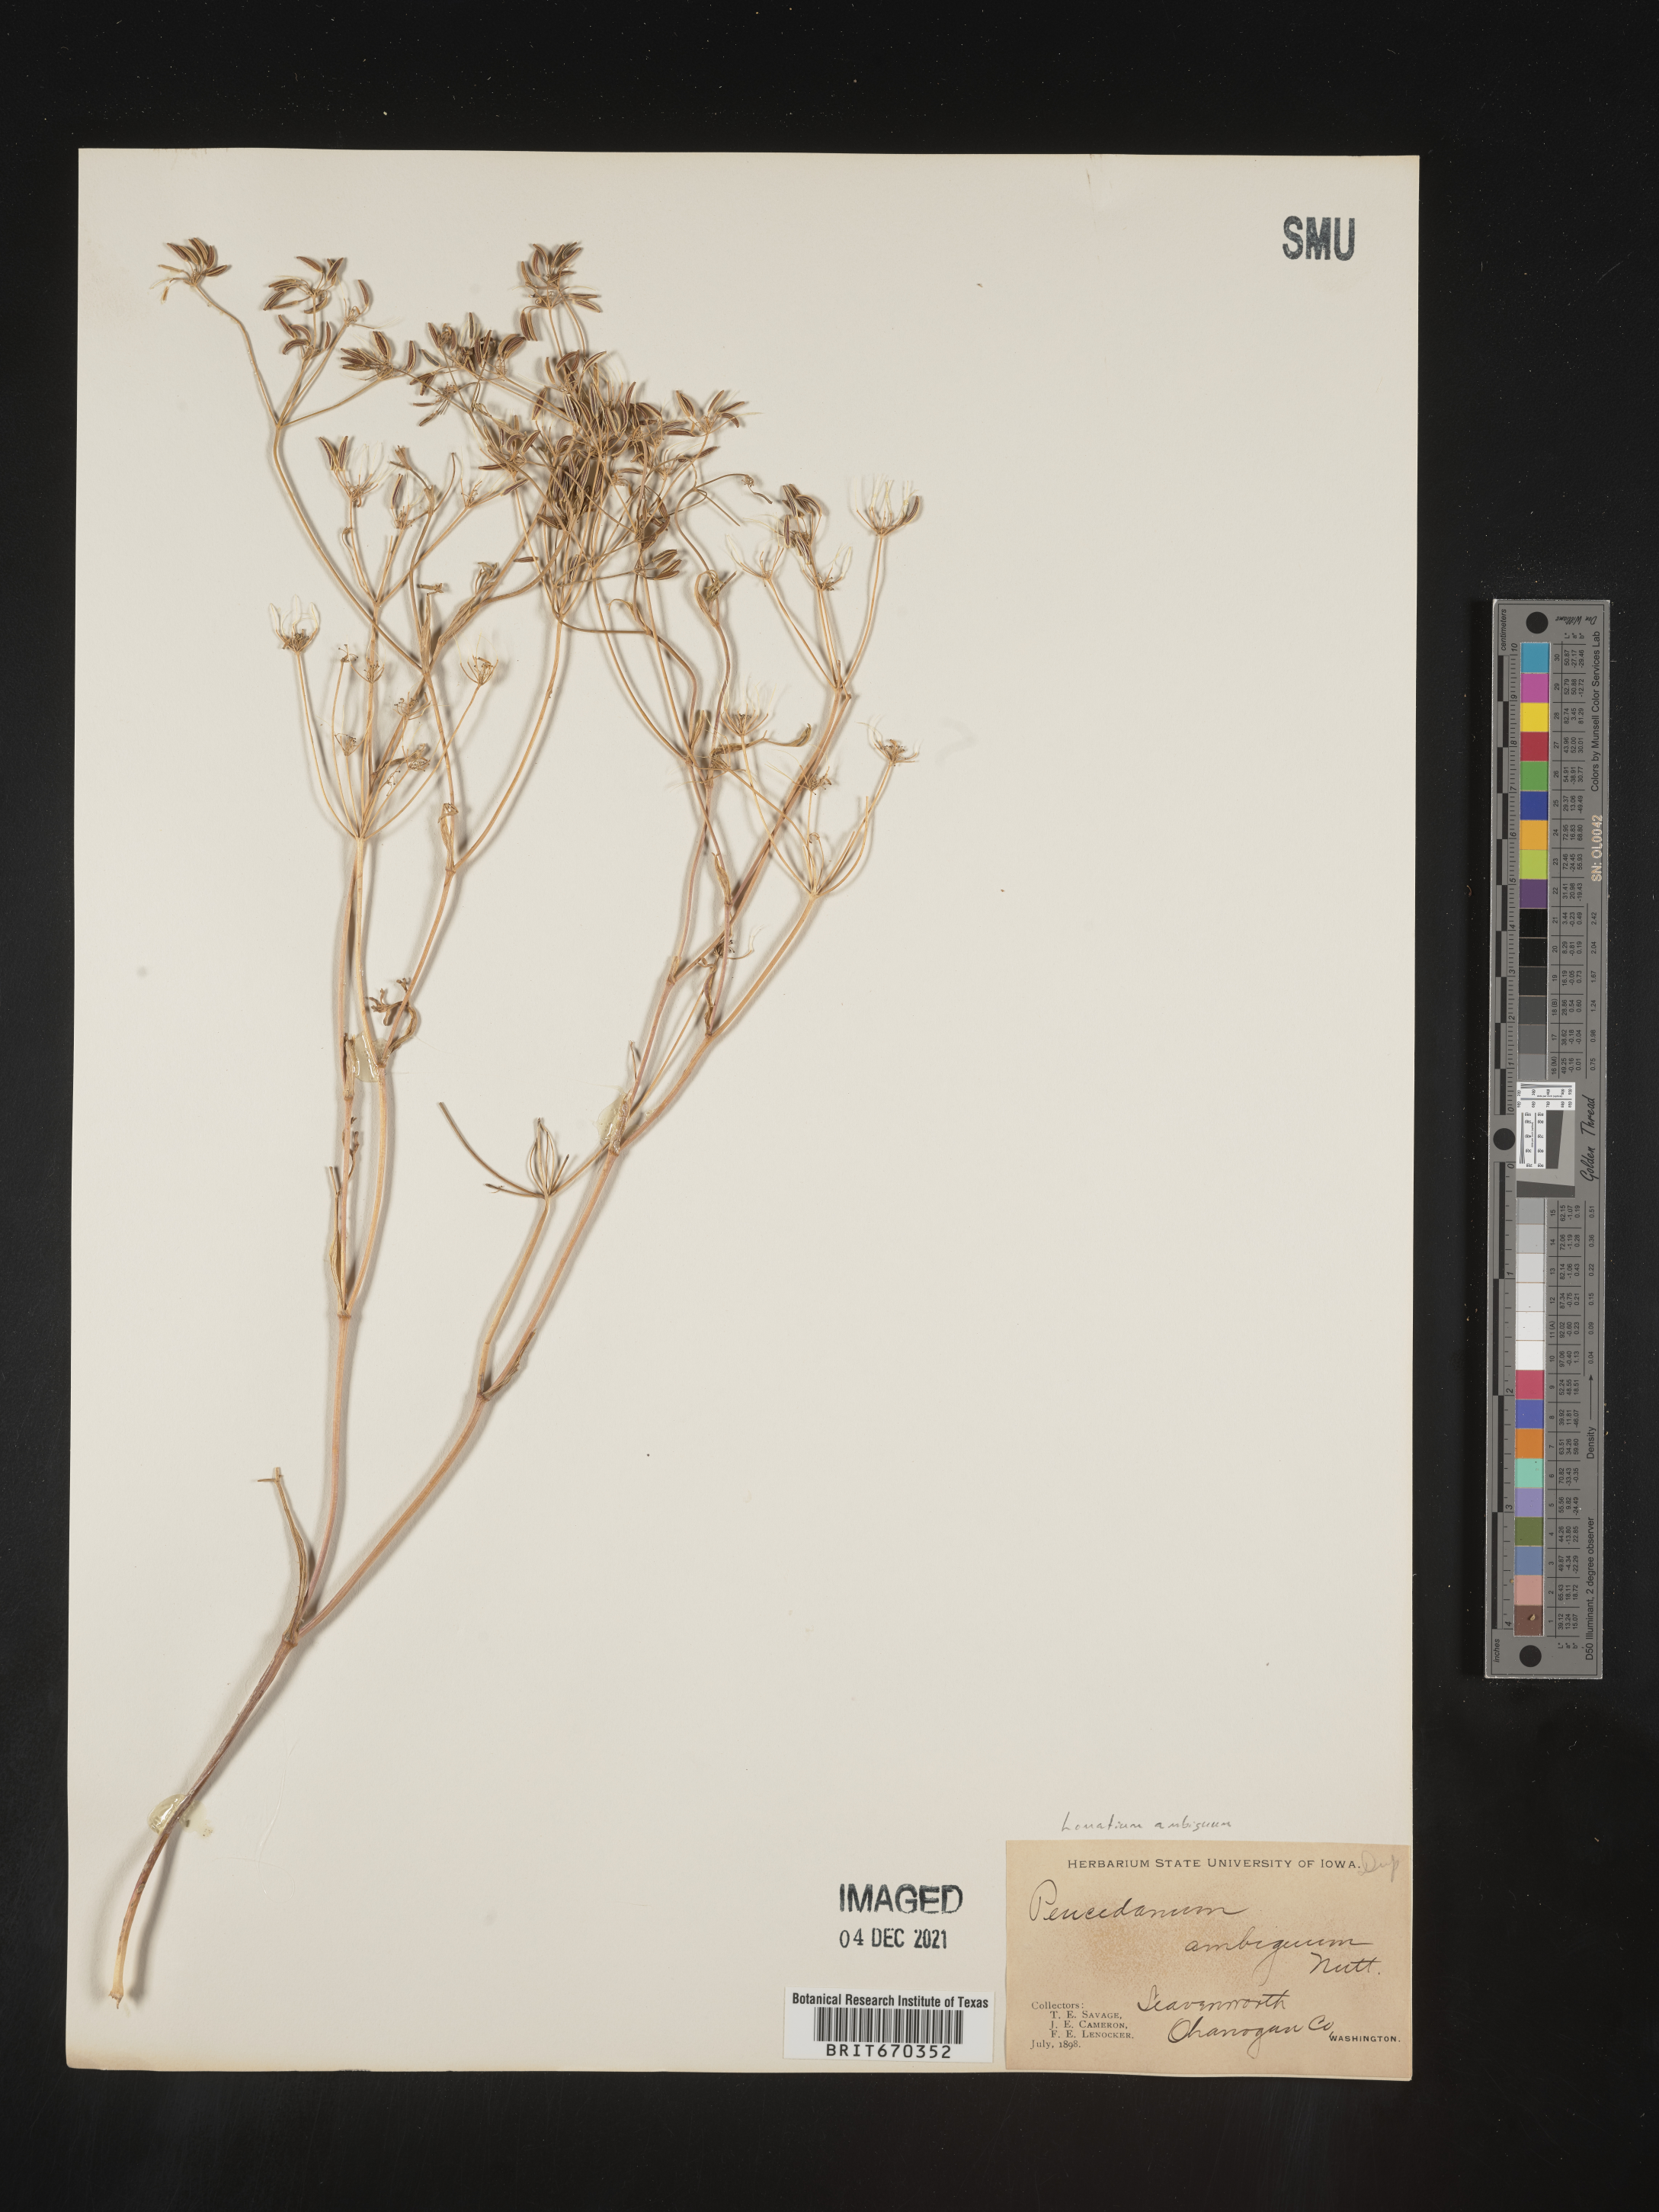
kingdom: Plantae
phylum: Tracheophyta
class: Magnoliopsida
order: Apiales
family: Apiaceae
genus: Lomatium
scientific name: Lomatium ambiguum
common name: Lacy lomatium
